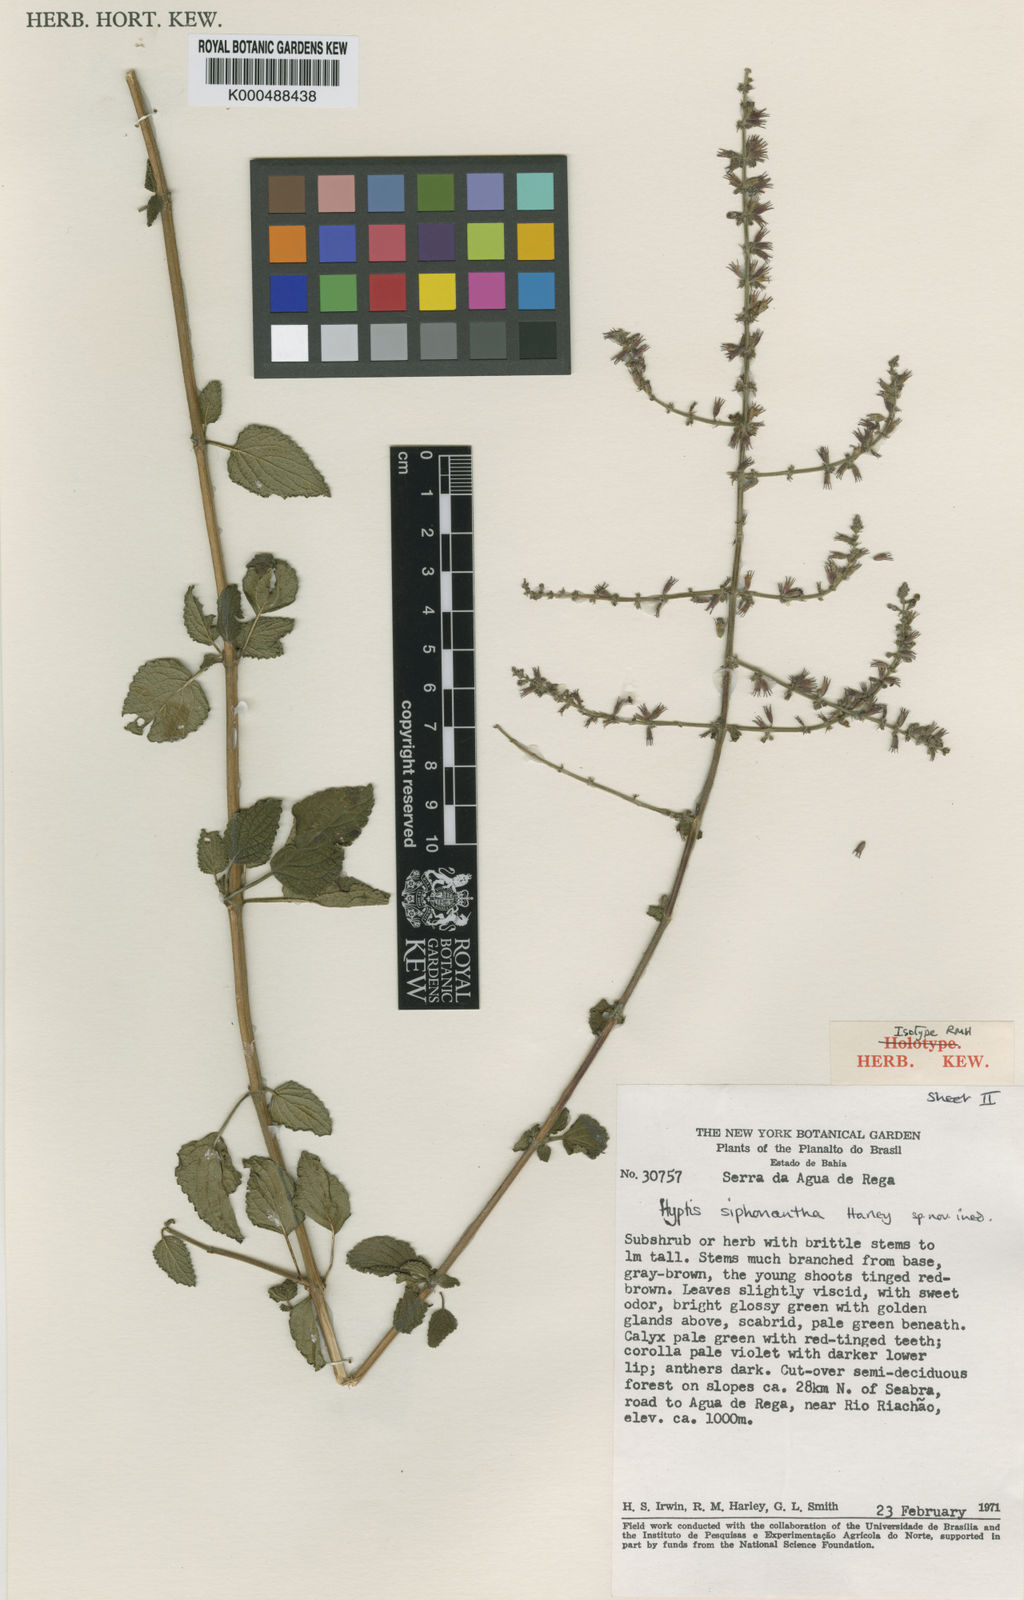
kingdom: Plantae
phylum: Tracheophyta
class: Magnoliopsida
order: Lamiales
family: Lamiaceae
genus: Leptohyptis
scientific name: Leptohyptis siphonantha
